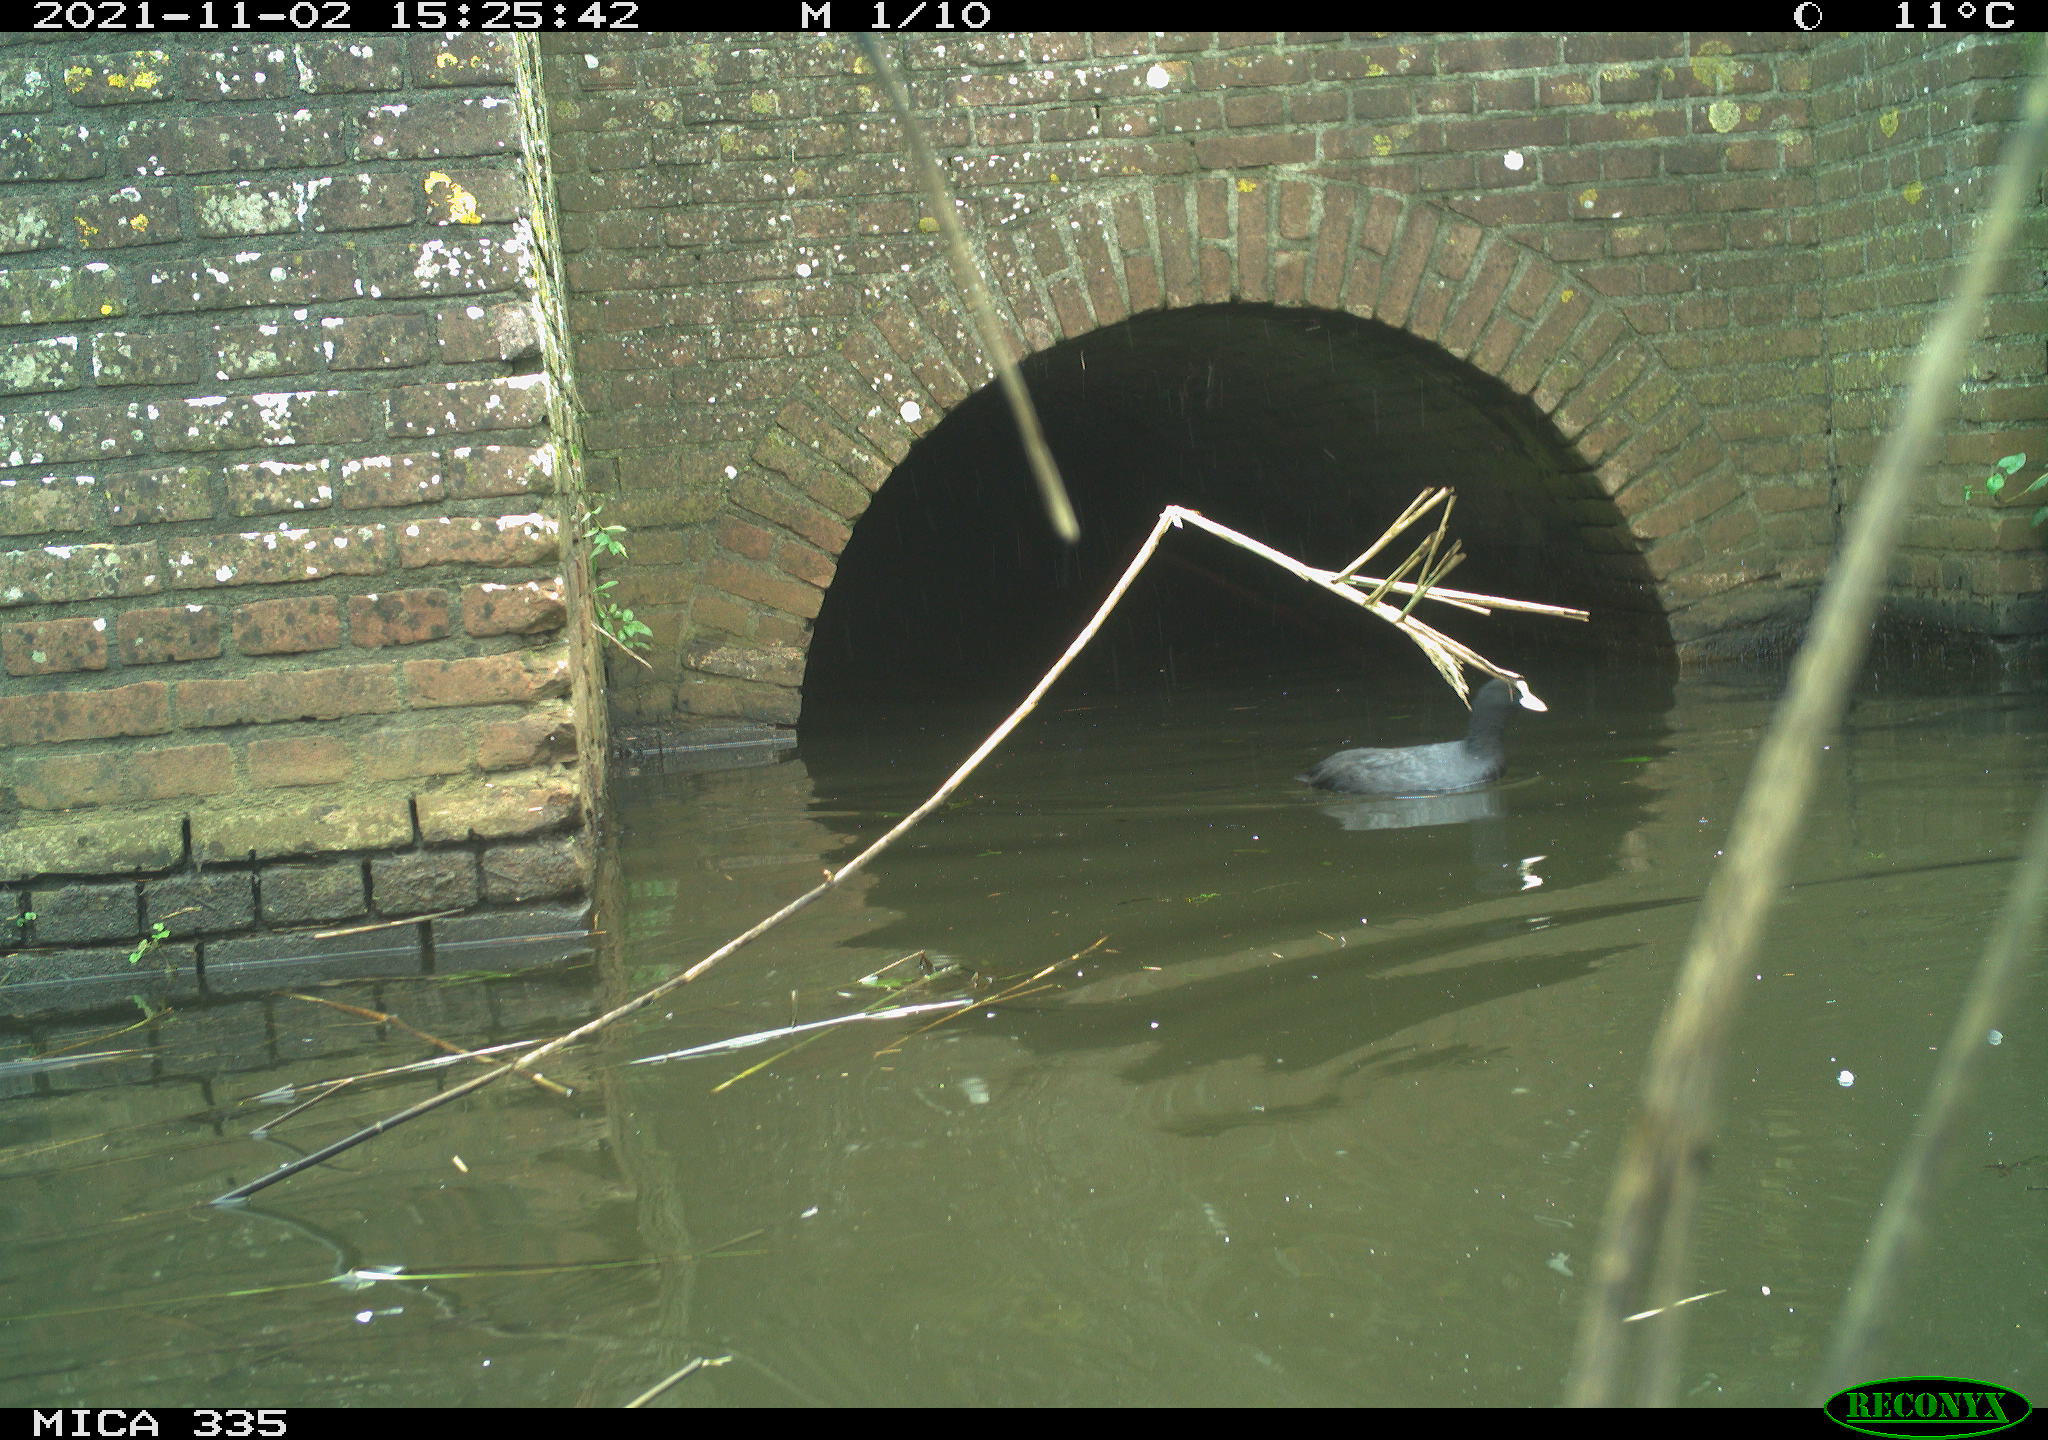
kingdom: Animalia
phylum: Chordata
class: Aves
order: Gruiformes
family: Rallidae
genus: Fulica
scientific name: Fulica atra
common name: Eurasian coot
